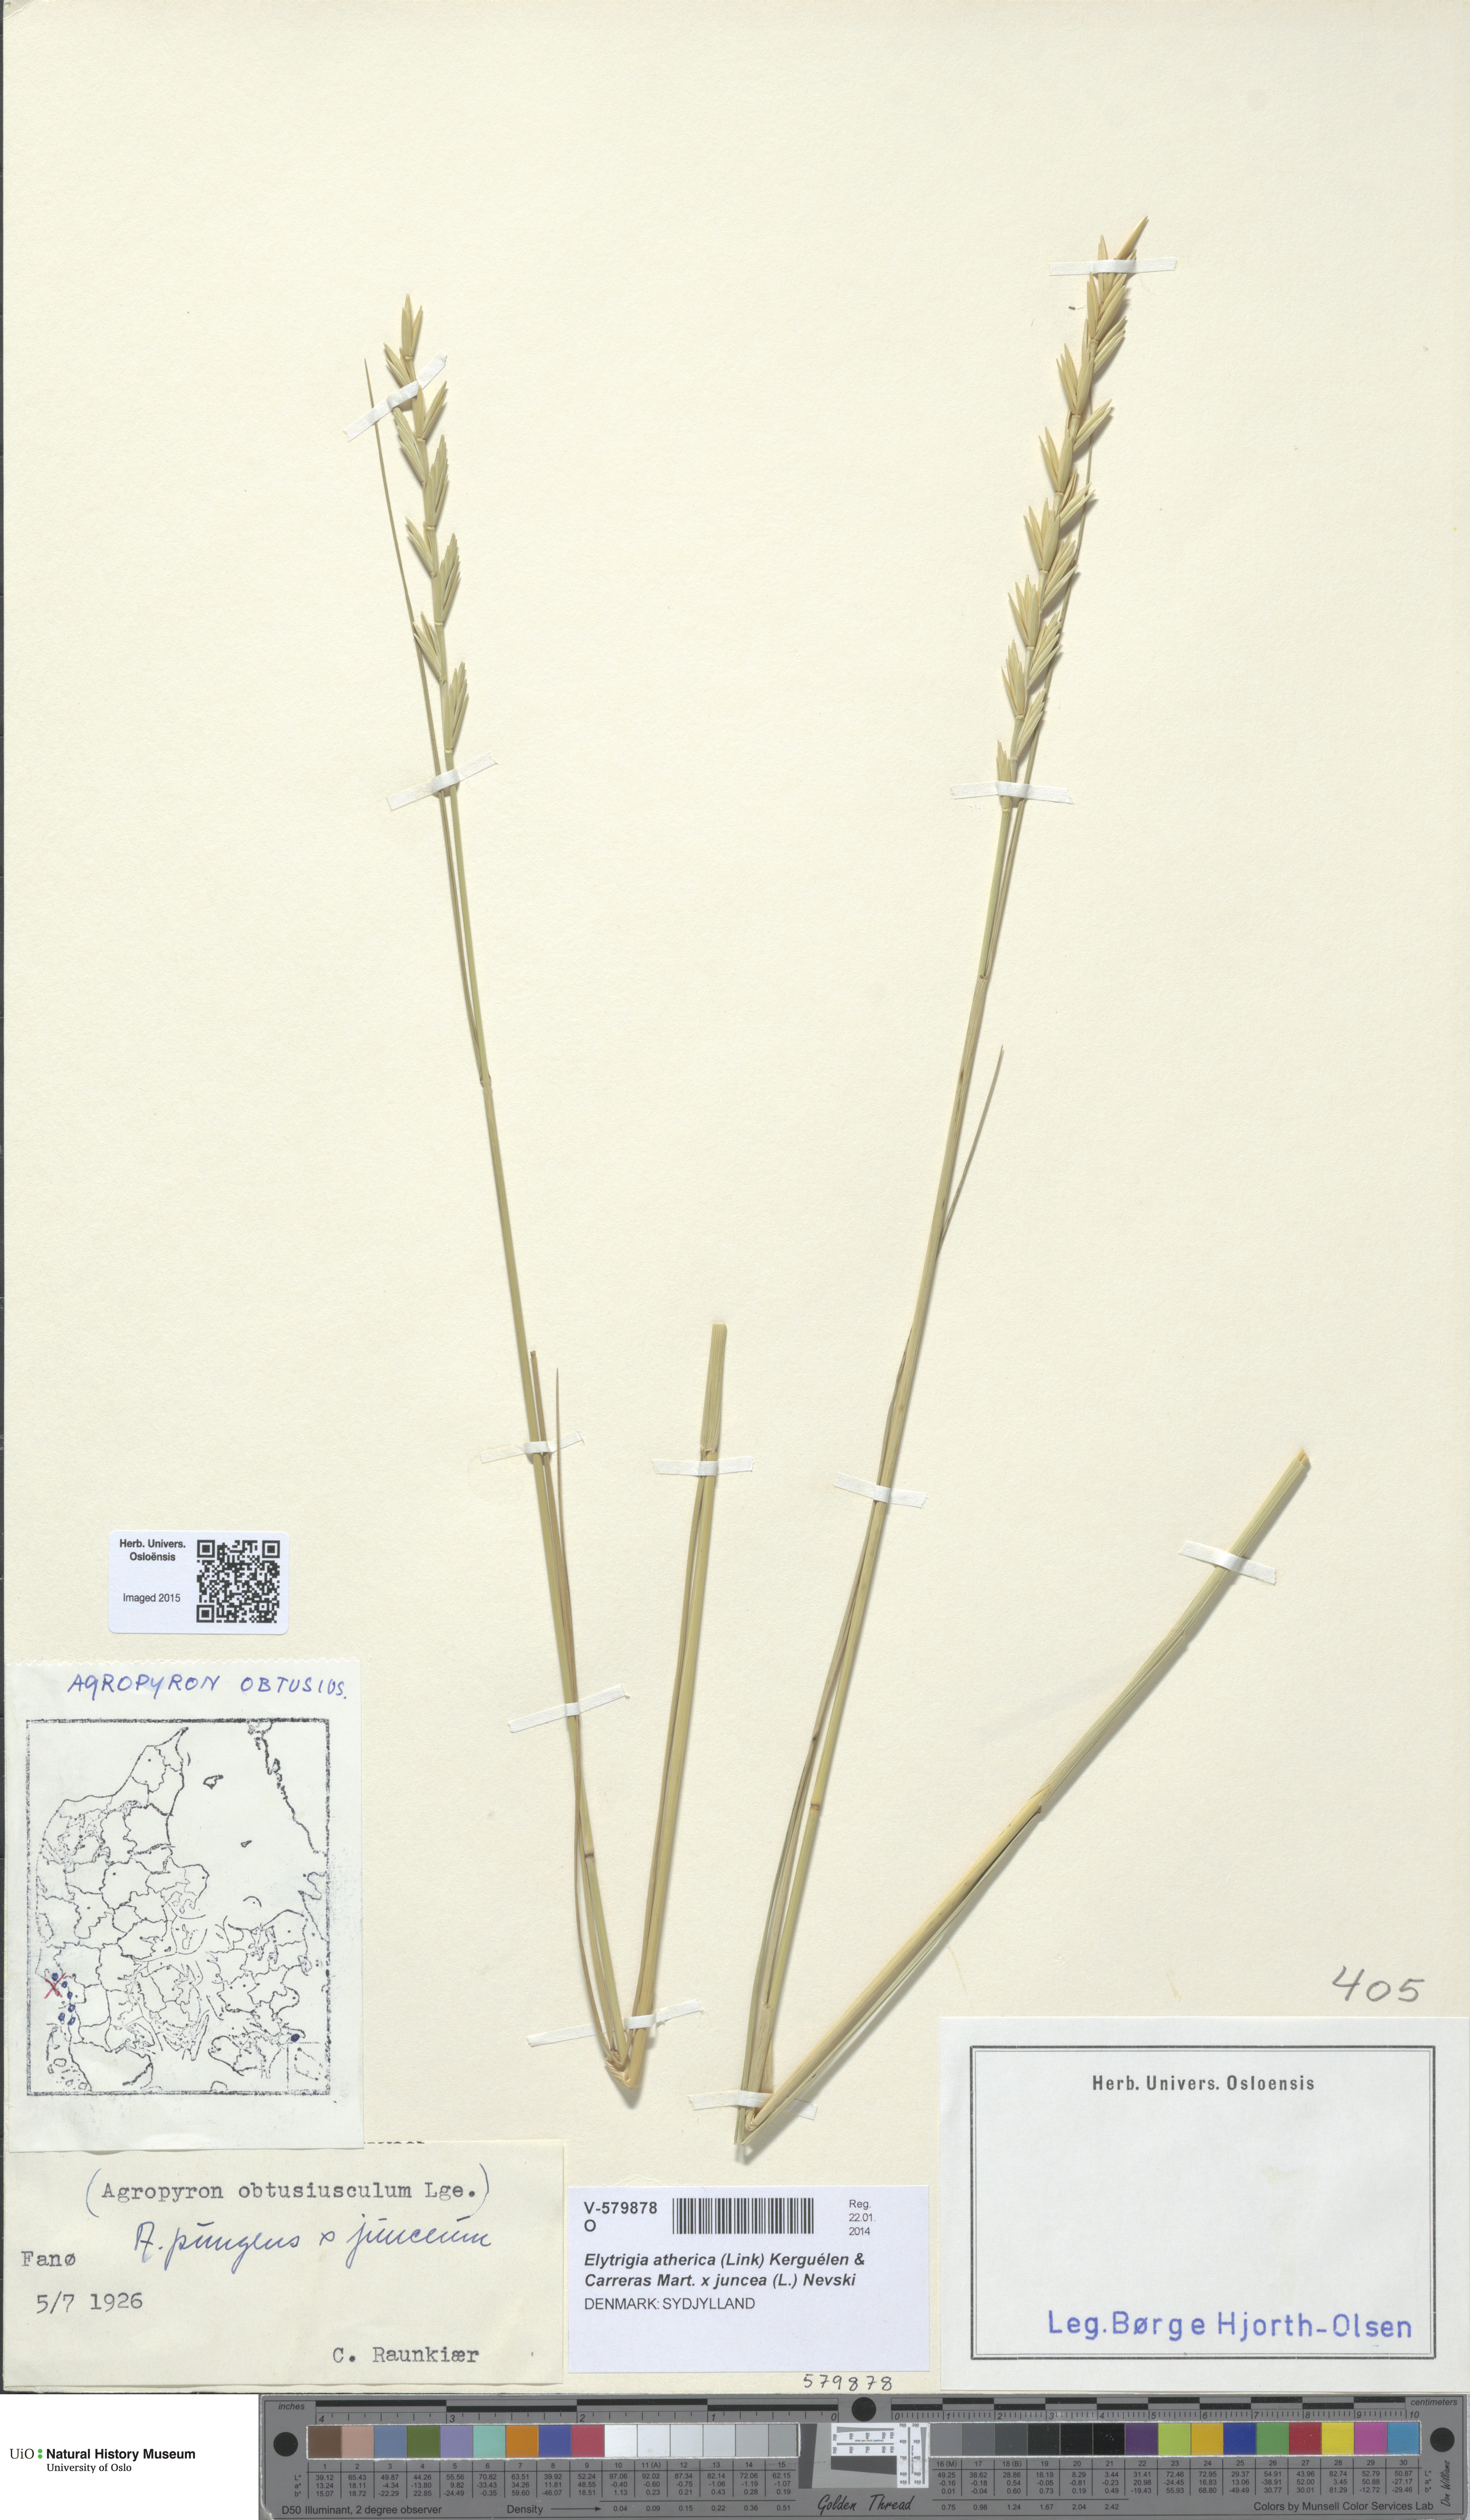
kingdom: Plantae
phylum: Tracheophyta
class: Liliopsida
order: Poales
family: Poaceae
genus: Elymus
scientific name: Elymus
